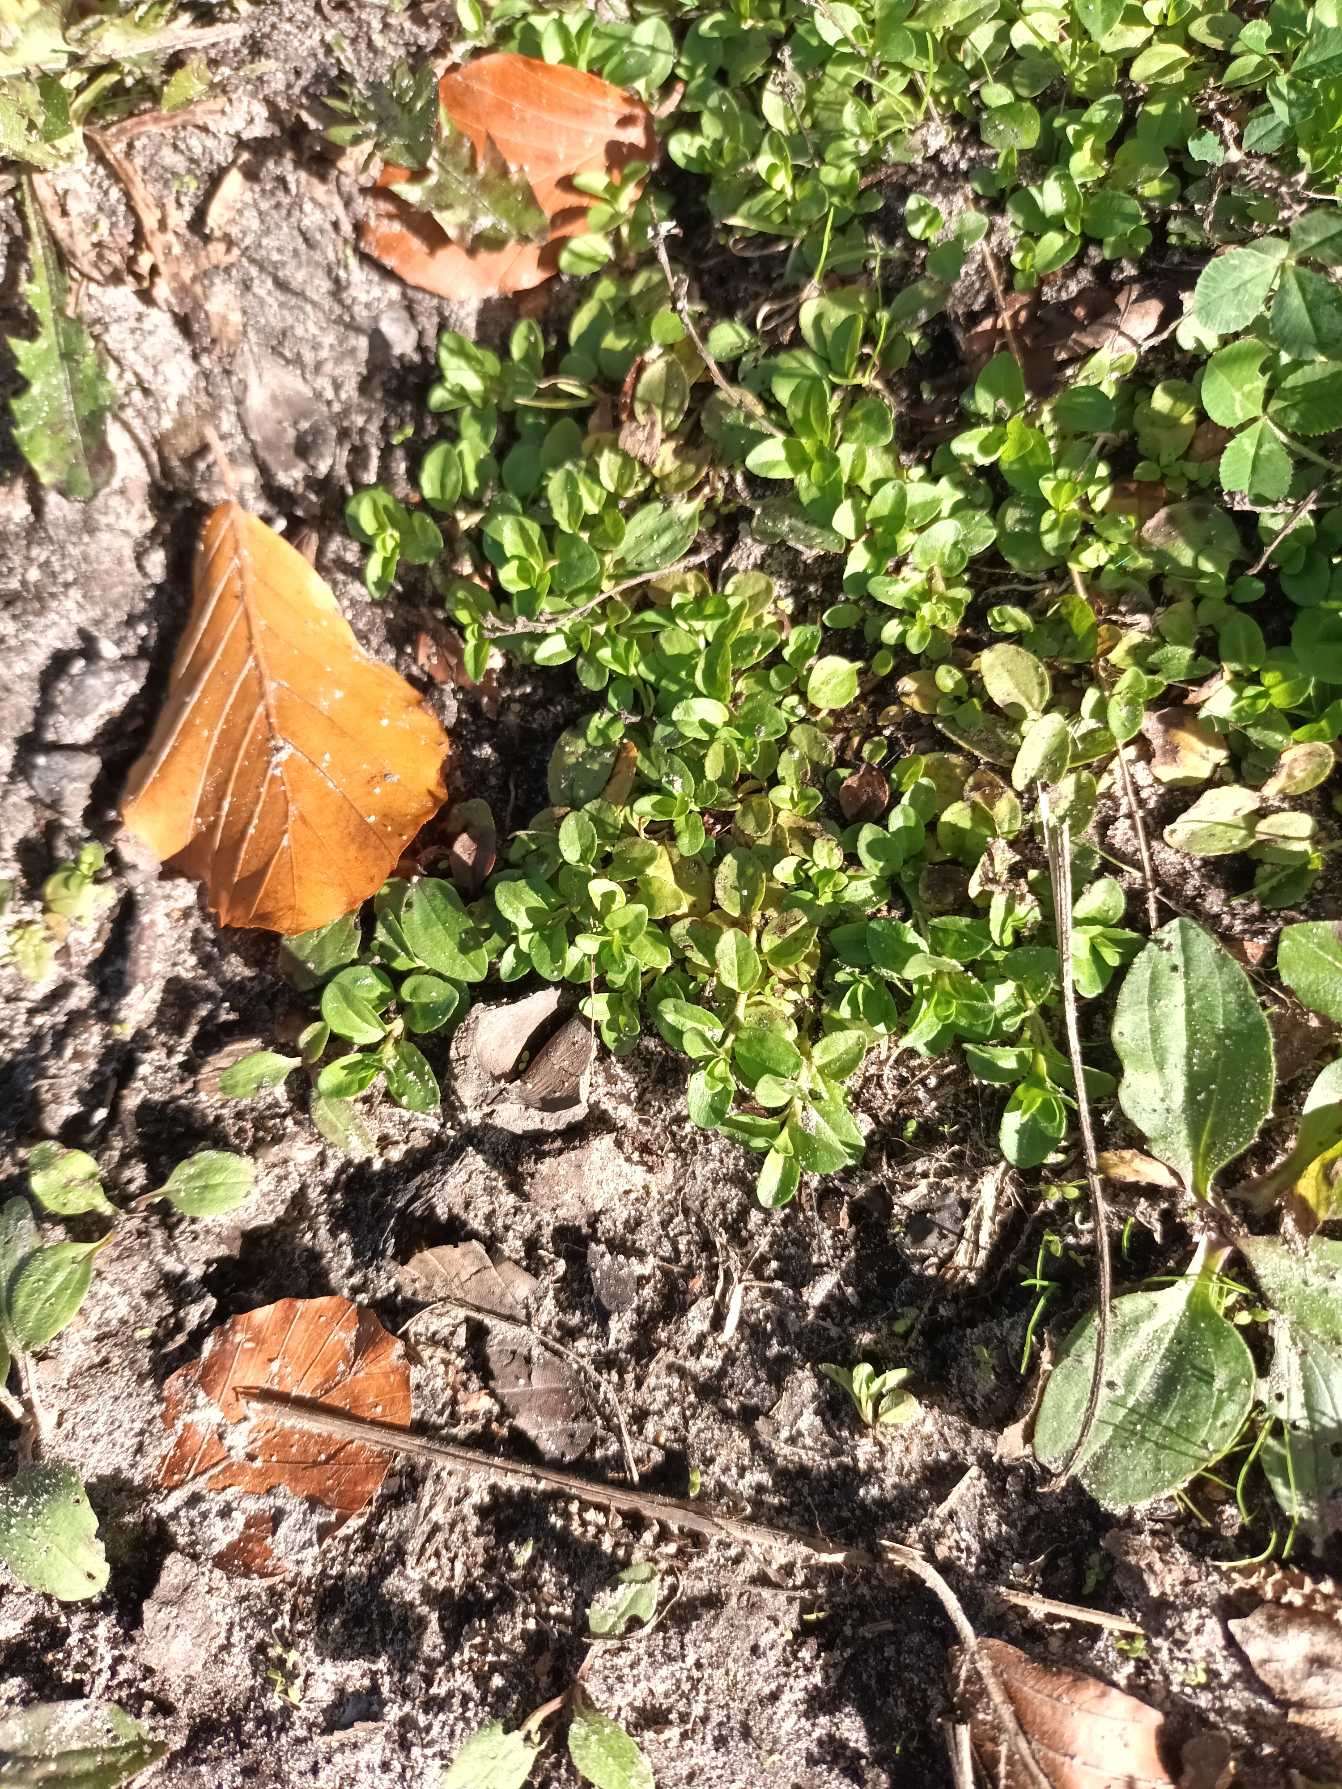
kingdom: Plantae
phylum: Tracheophyta
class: Magnoliopsida
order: Lamiales
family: Plantaginaceae
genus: Veronica
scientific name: Veronica serpyllifolia
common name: Glat ærenpris
